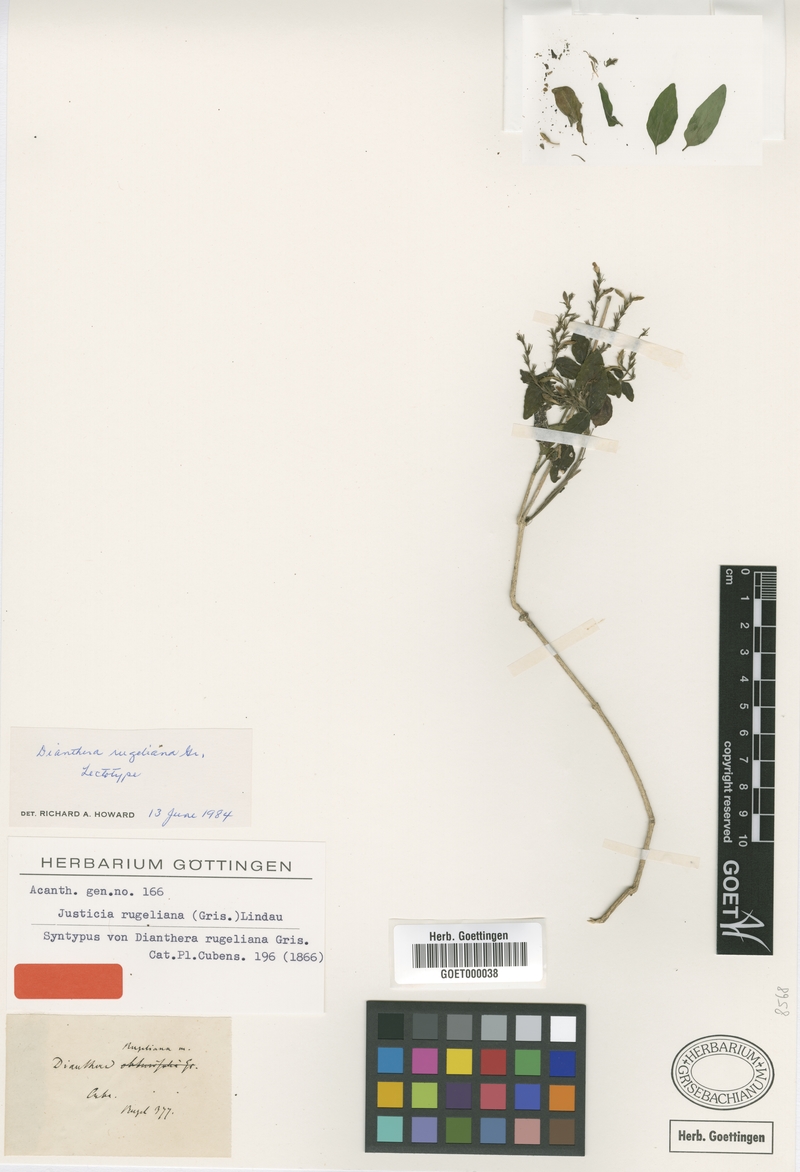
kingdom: Plantae
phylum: Tracheophyta
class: Magnoliopsida
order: Lamiales
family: Acanthaceae
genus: Dianthera
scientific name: Dianthera rugeliana
